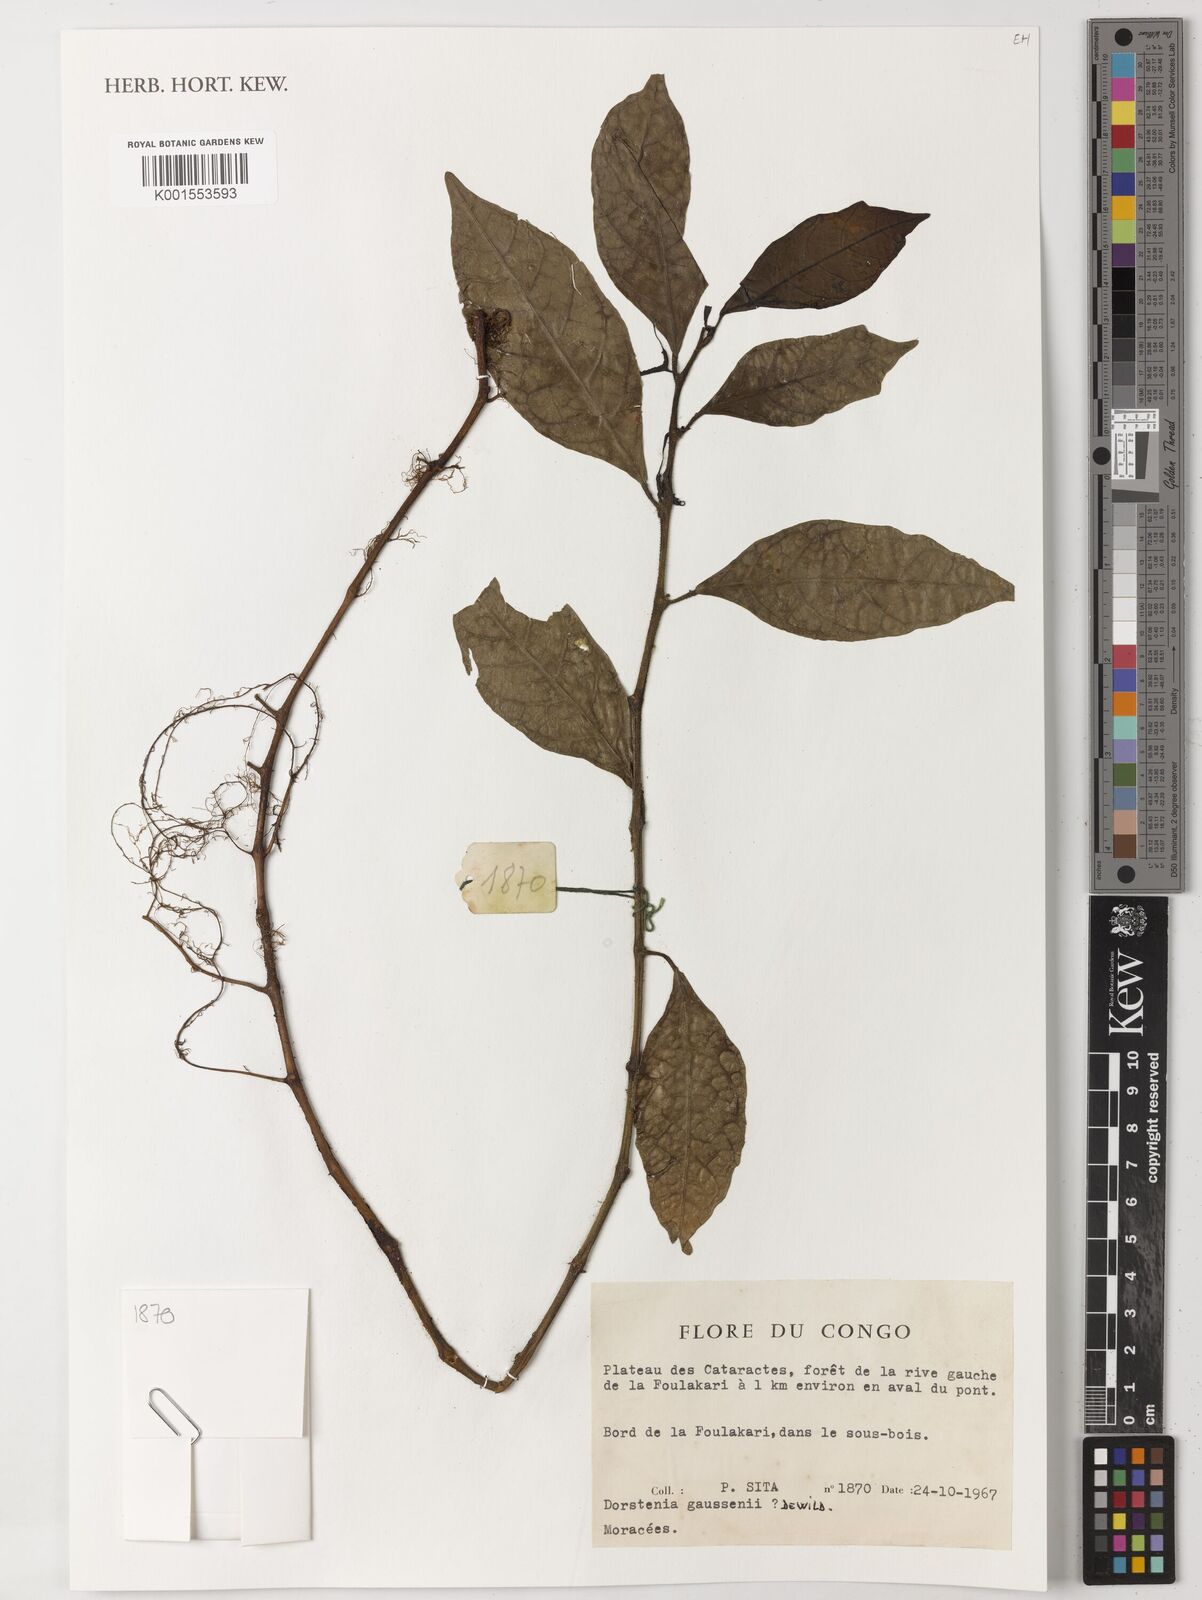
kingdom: Plantae
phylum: Tracheophyta
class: Magnoliopsida
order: Rosales
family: Moraceae
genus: Dorstenia
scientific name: Dorstenia dinklagei
